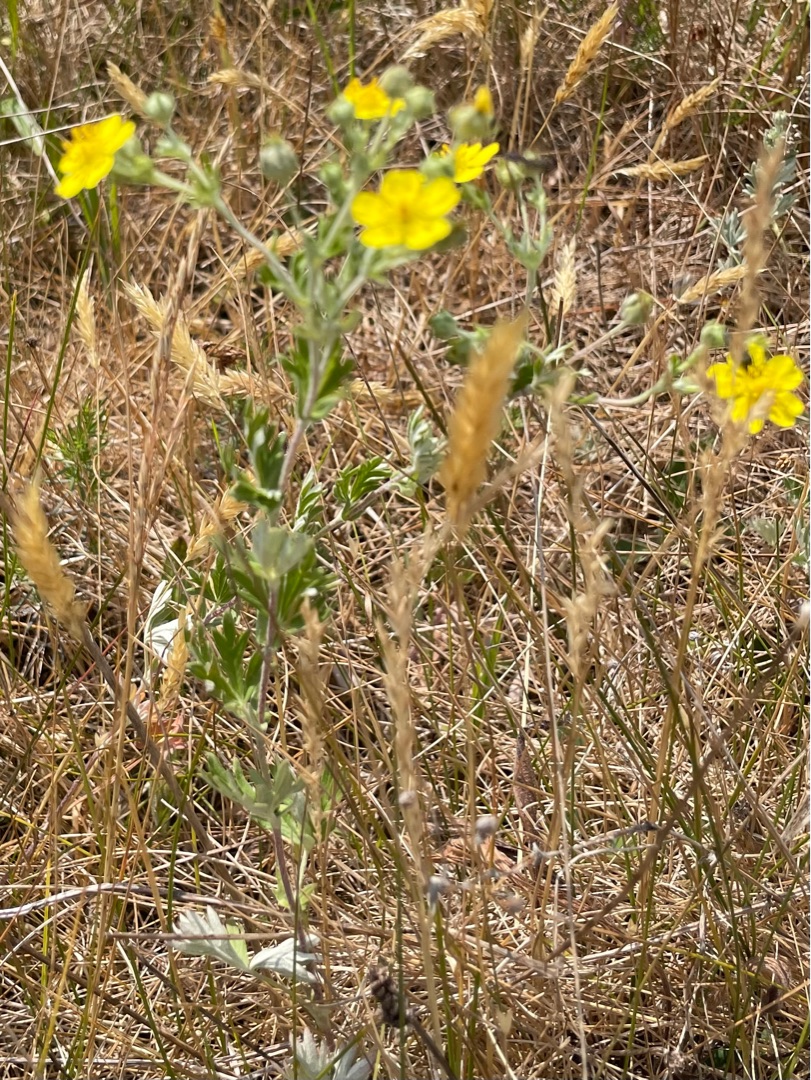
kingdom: Plantae
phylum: Tracheophyta
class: Magnoliopsida
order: Rosales
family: Rosaceae
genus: Potentilla
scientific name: Potentilla argentea
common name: Sølv-potentil
